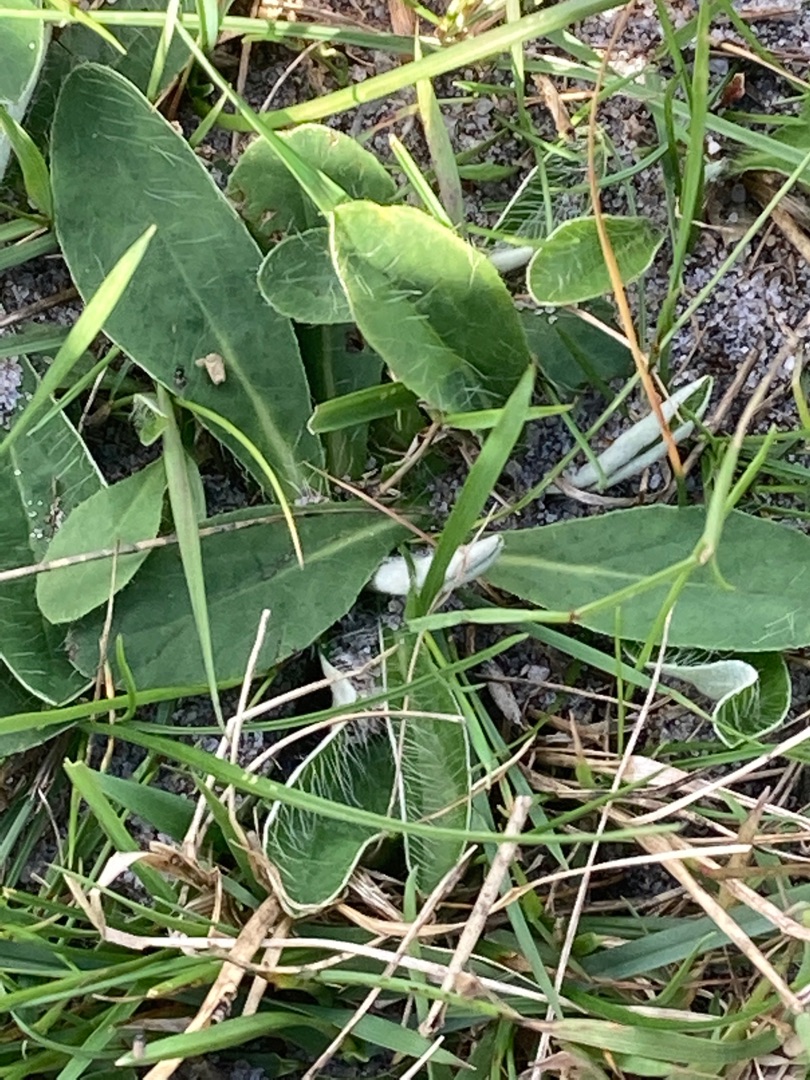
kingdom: Plantae
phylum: Tracheophyta
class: Magnoliopsida
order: Asterales
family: Asteraceae
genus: Pilosella
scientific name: Pilosella officinarum
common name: Håret høgeurt
